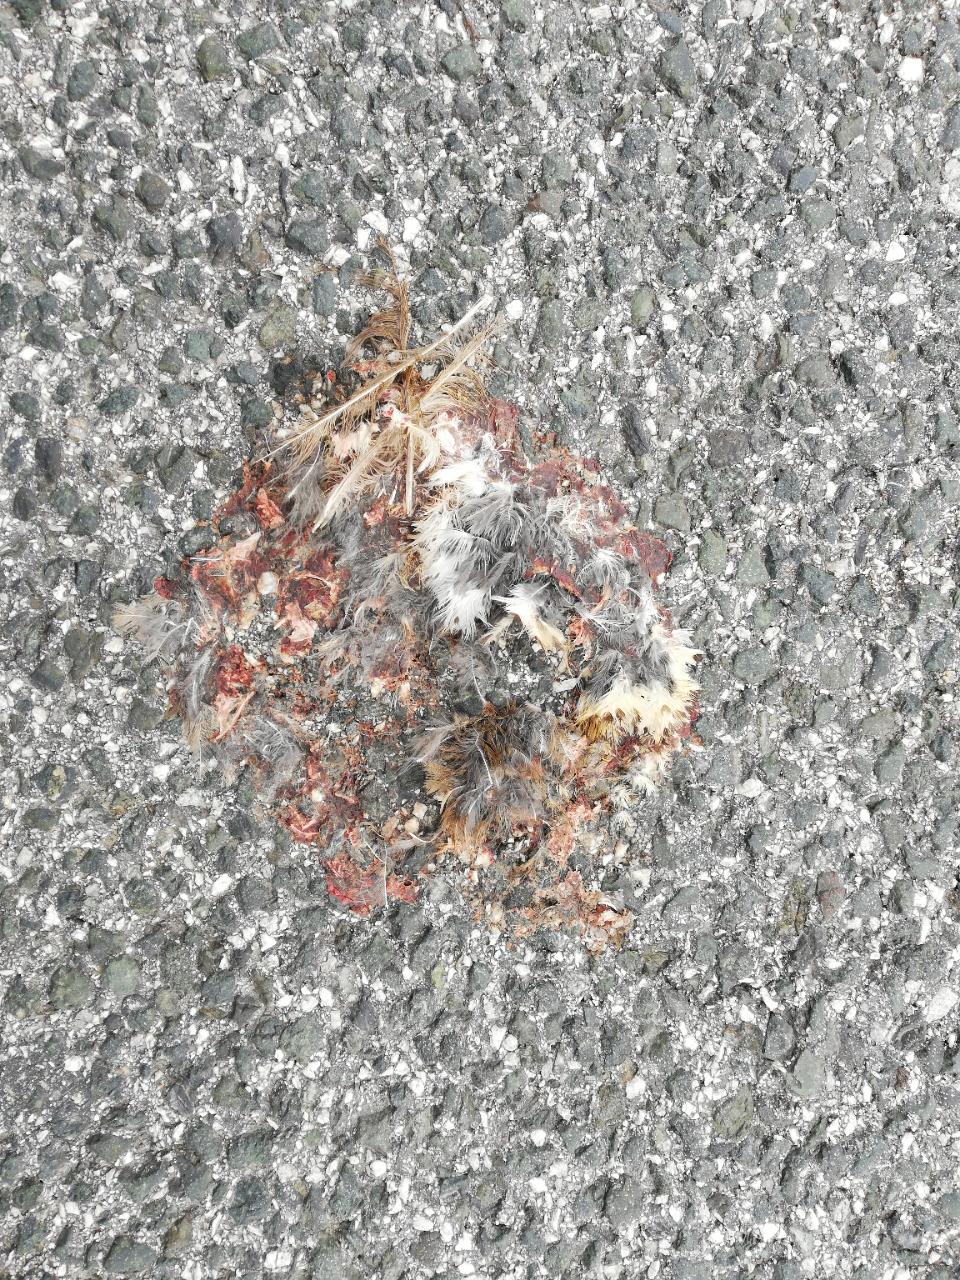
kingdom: Animalia
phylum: Chordata
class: Aves
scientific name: Aves
